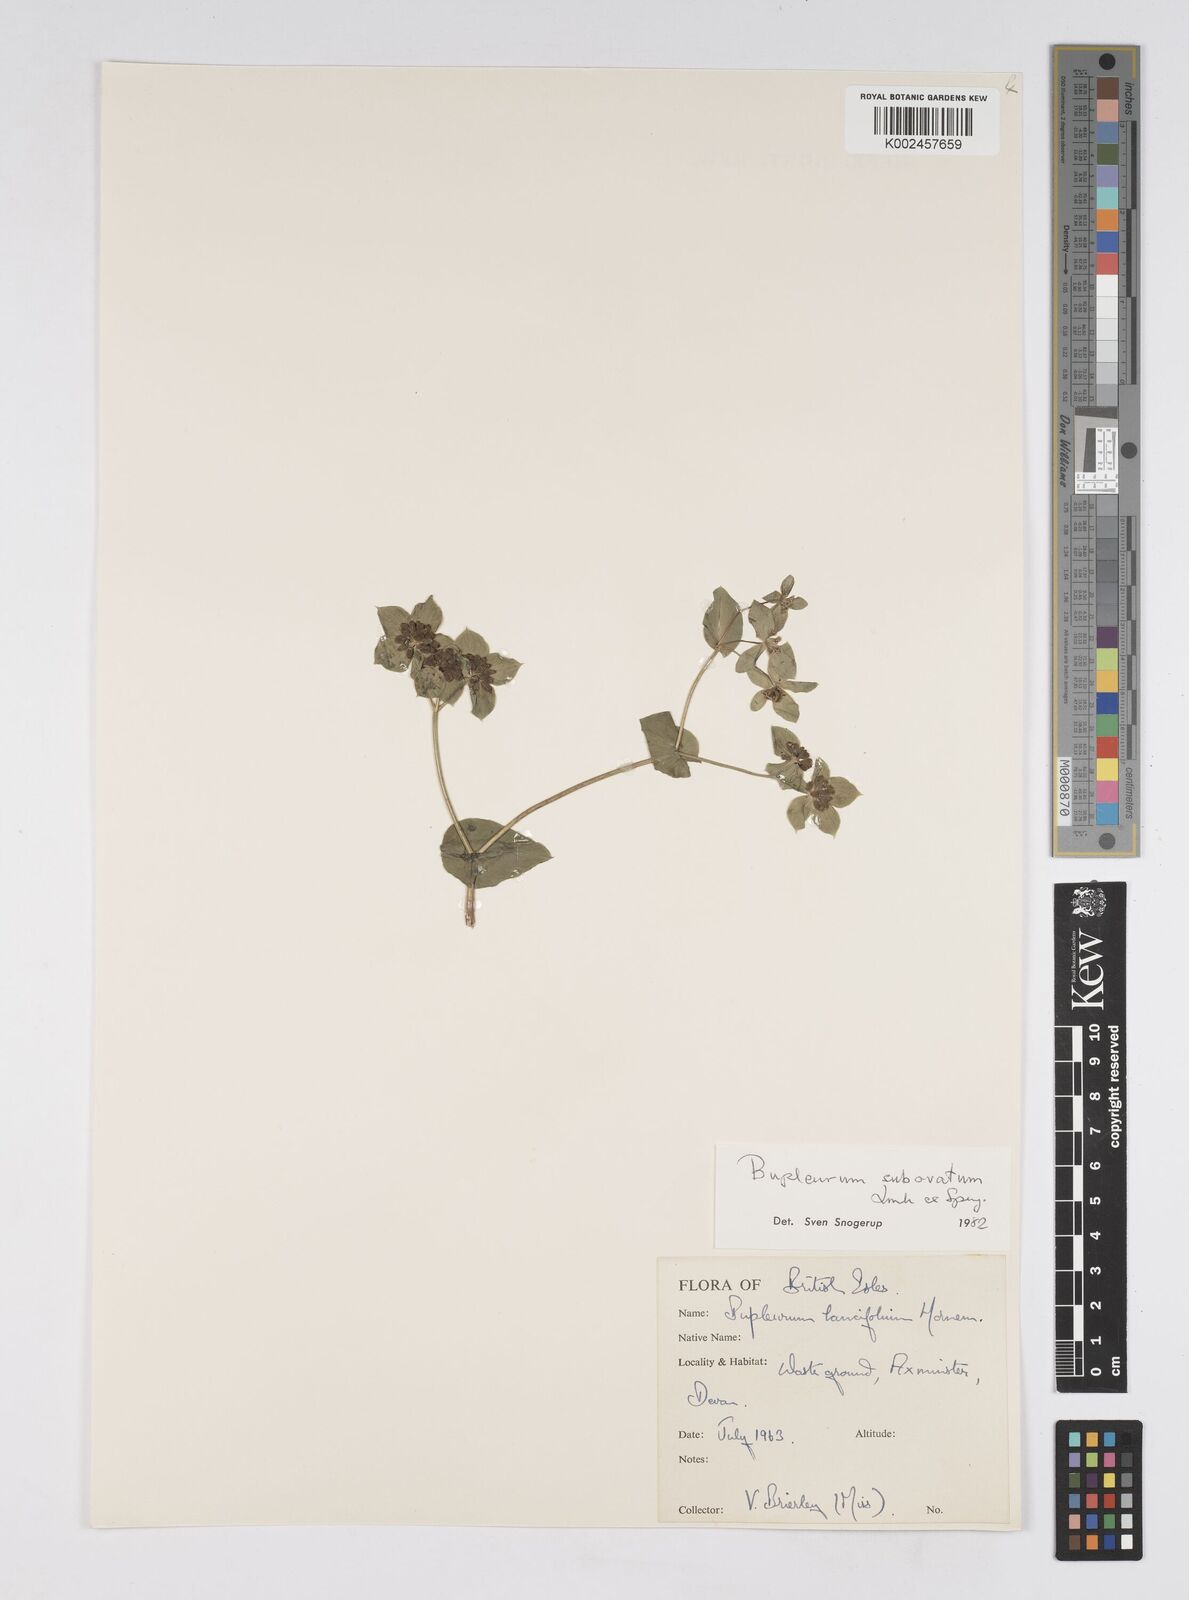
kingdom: Plantae
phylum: Tracheophyta
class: Magnoliopsida
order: Apiales
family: Apiaceae
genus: Bupleurum
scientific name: Bupleurum subovatum
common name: False thorow-wax
